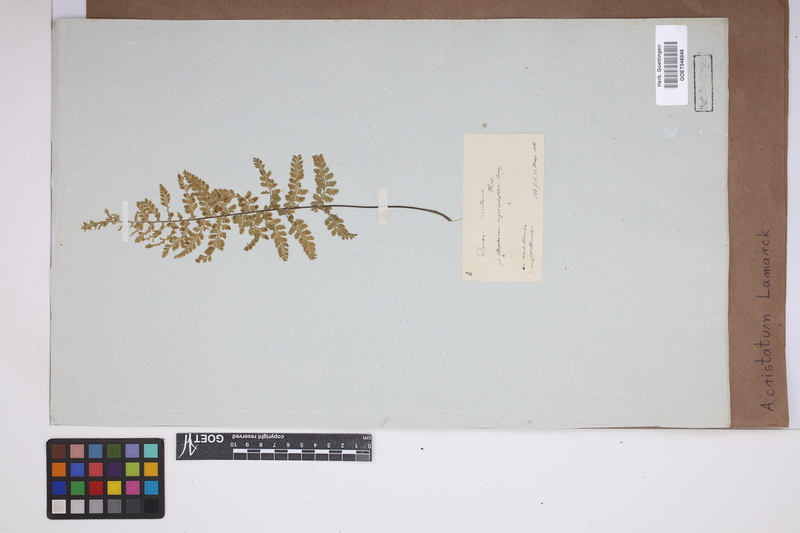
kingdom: Plantae
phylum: Tracheophyta
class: Polypodiopsida
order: Polypodiales
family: Aspleniaceae
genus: Asplenium
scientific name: Asplenium cristatum
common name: Parsley spleenwort
